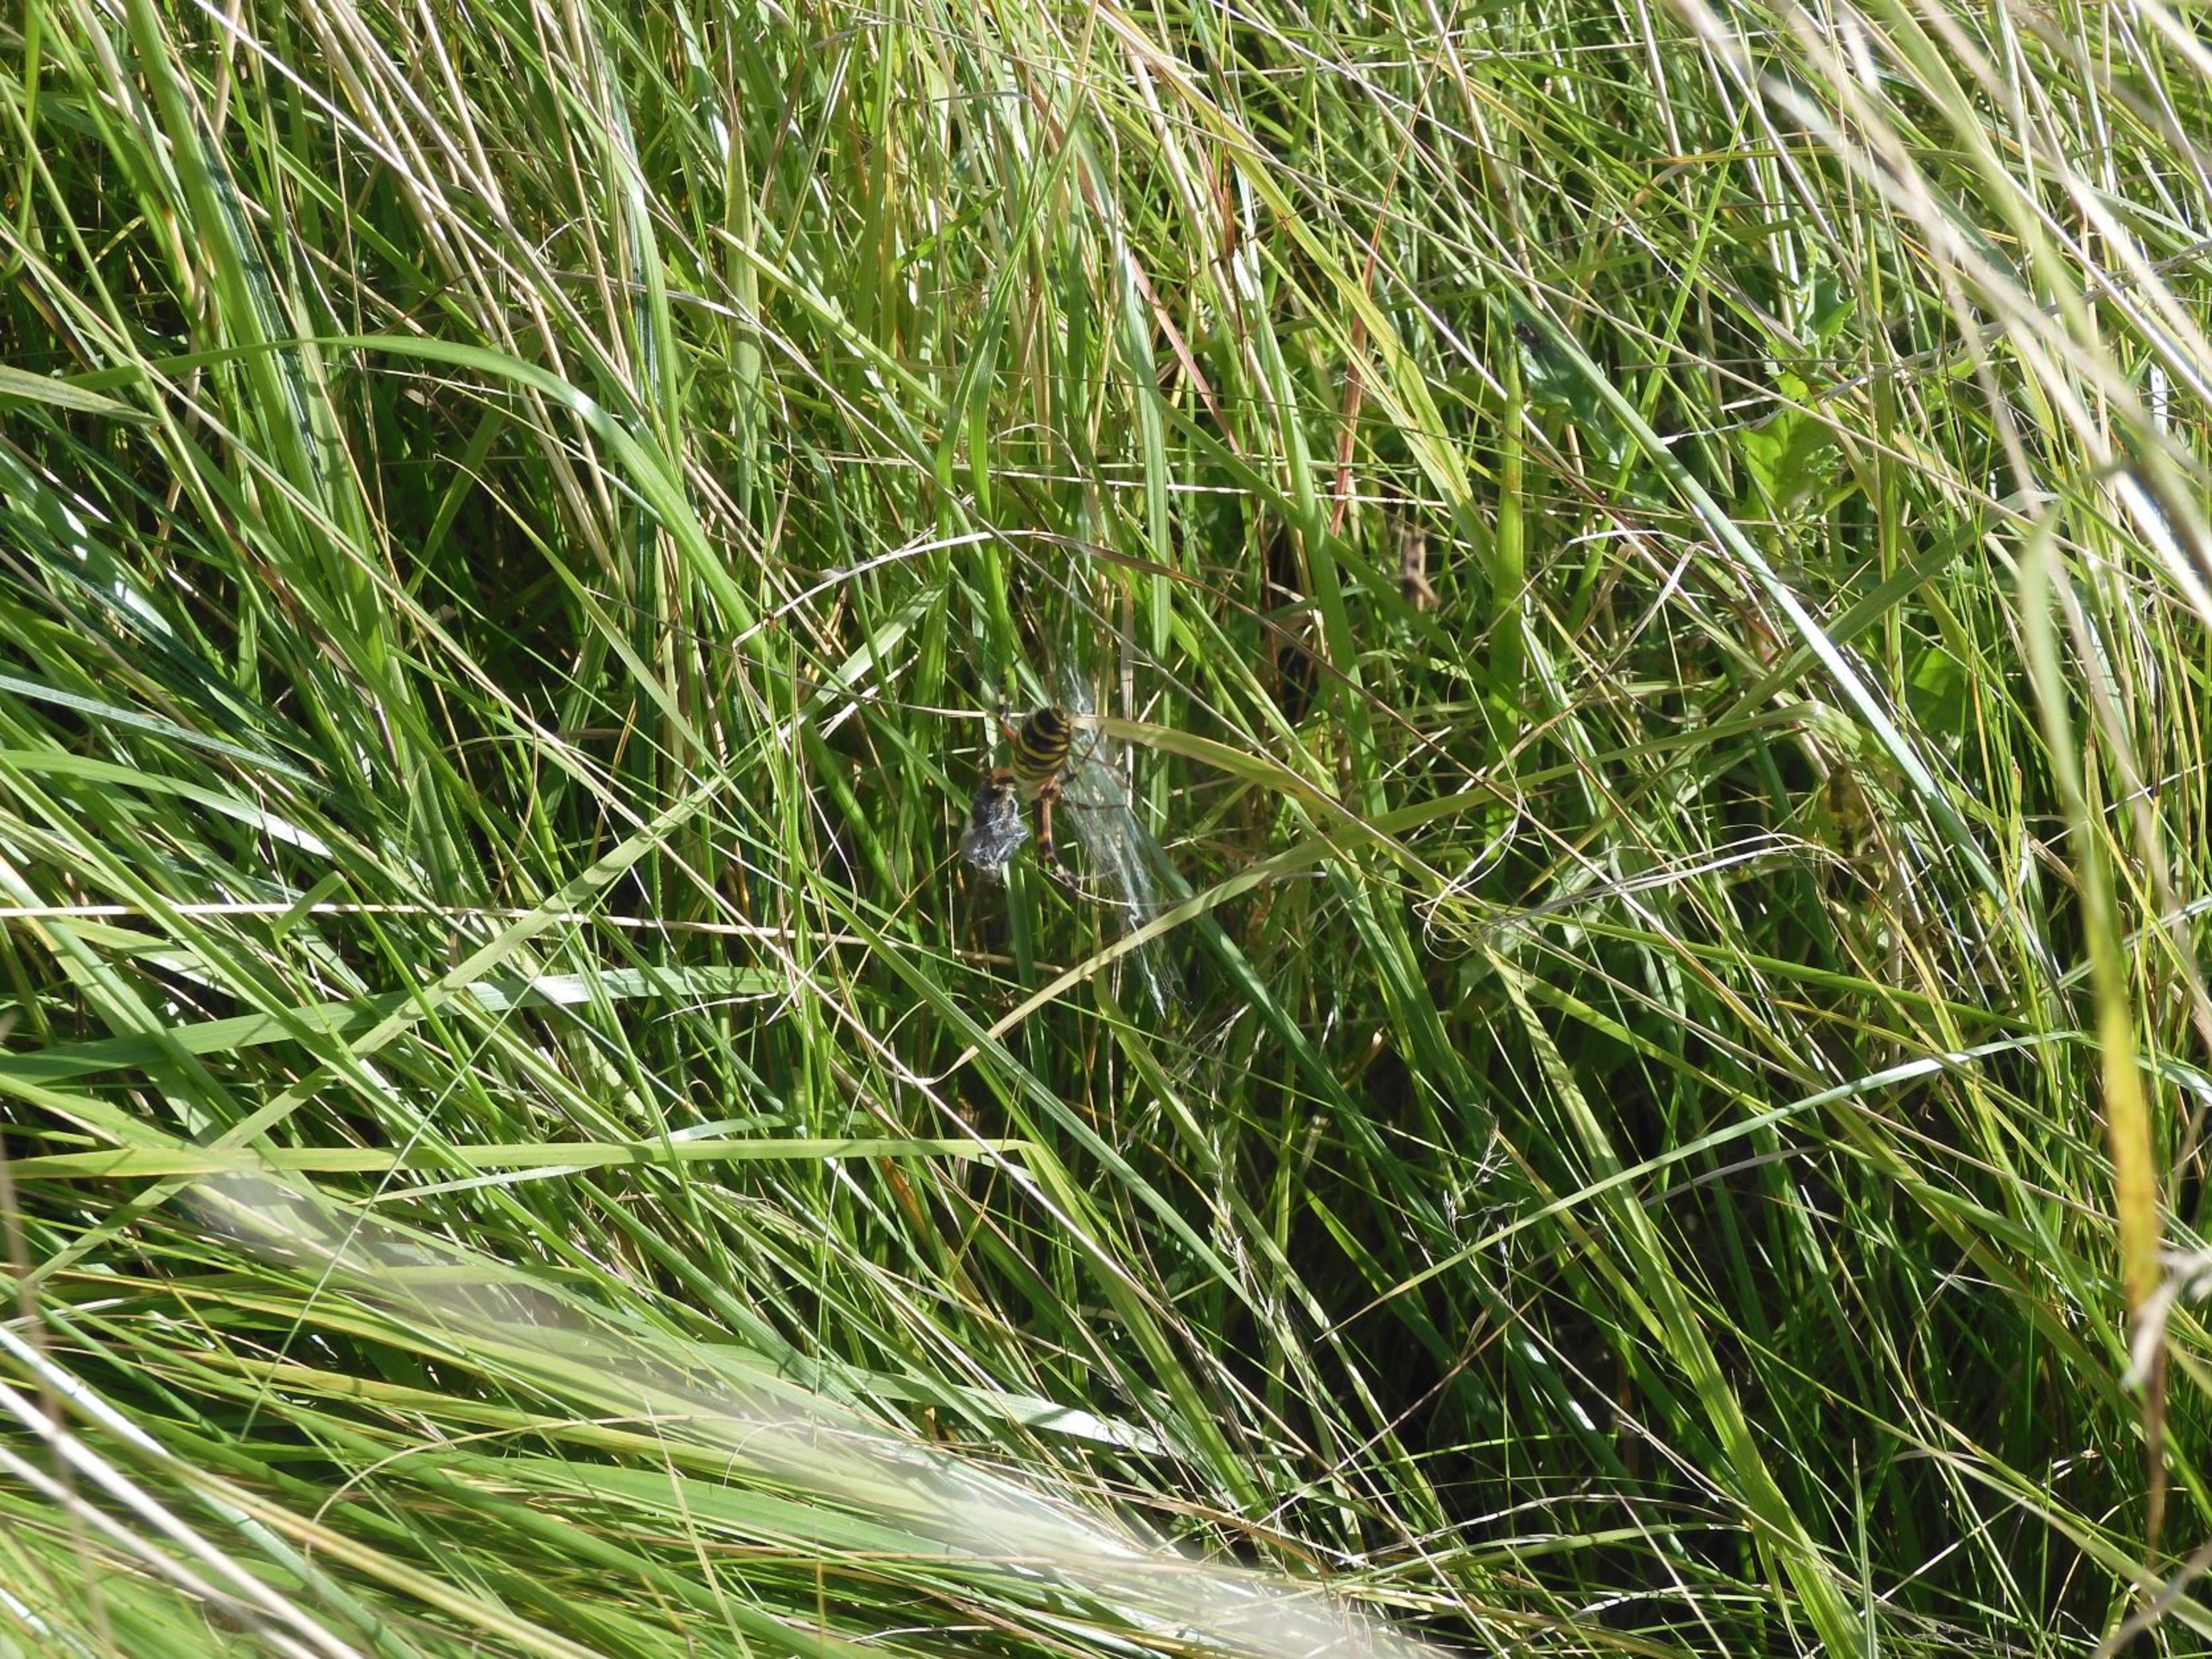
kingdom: Animalia
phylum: Arthropoda
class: Arachnida
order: Araneae
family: Araneidae
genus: Argiope
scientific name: Argiope bruennichi
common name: Hvepseedderkop
